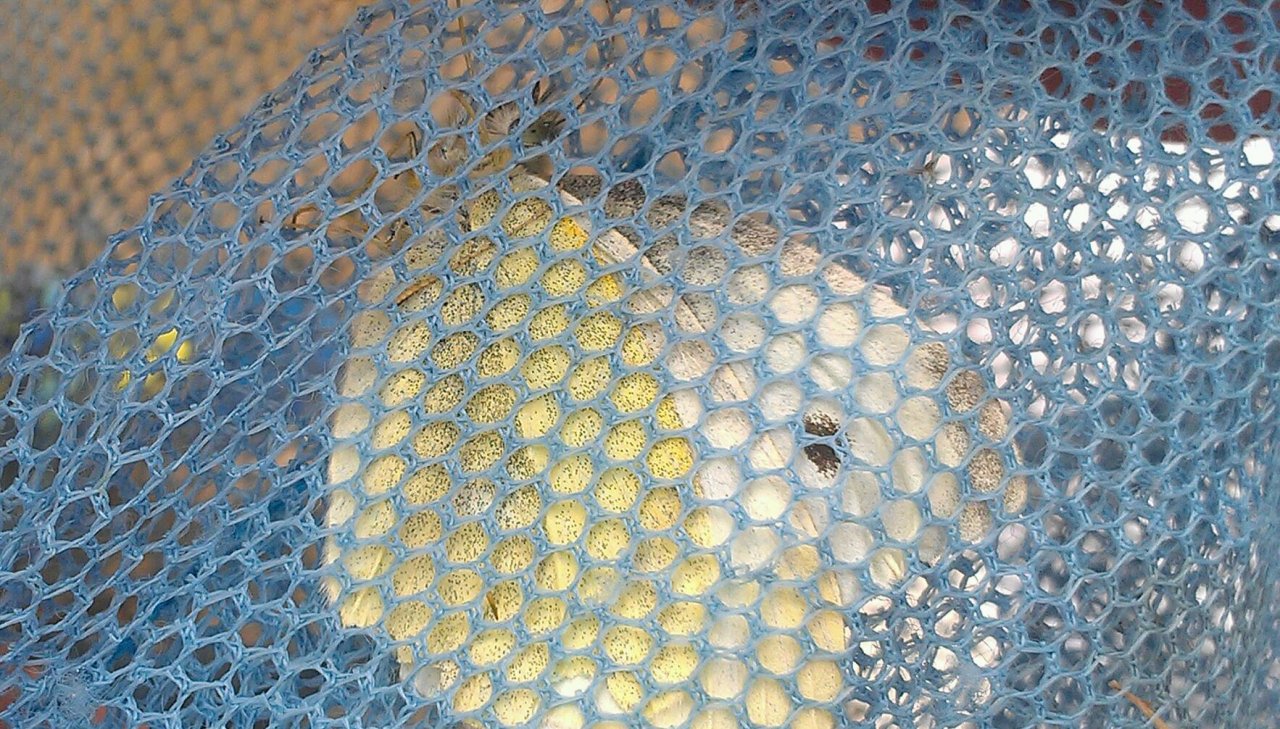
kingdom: Animalia
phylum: Arthropoda
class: Insecta
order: Lepidoptera
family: Pieridae
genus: Pieris
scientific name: Pieris rapae
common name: Cabbage White
